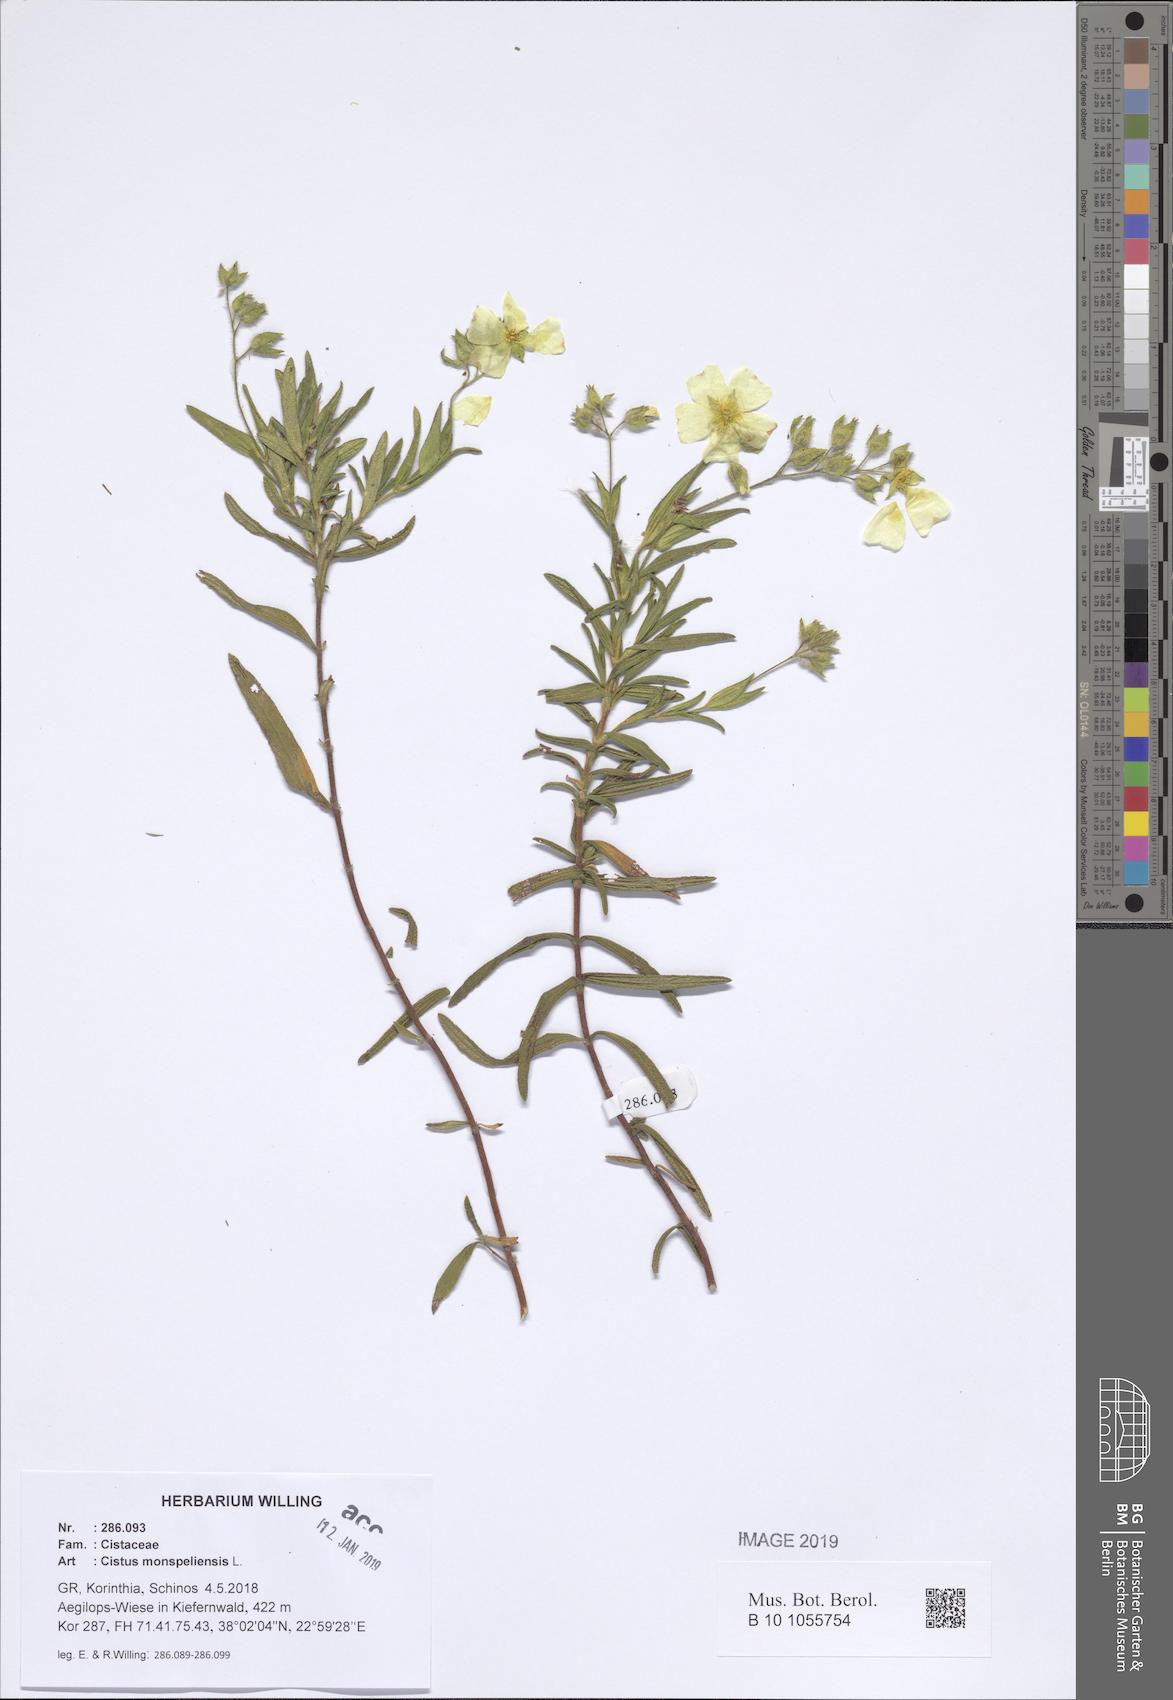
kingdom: Plantae
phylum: Tracheophyta
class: Magnoliopsida
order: Malvales
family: Cistaceae
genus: Cistus
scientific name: Cistus monspeliensis
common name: Montpelier cistus
